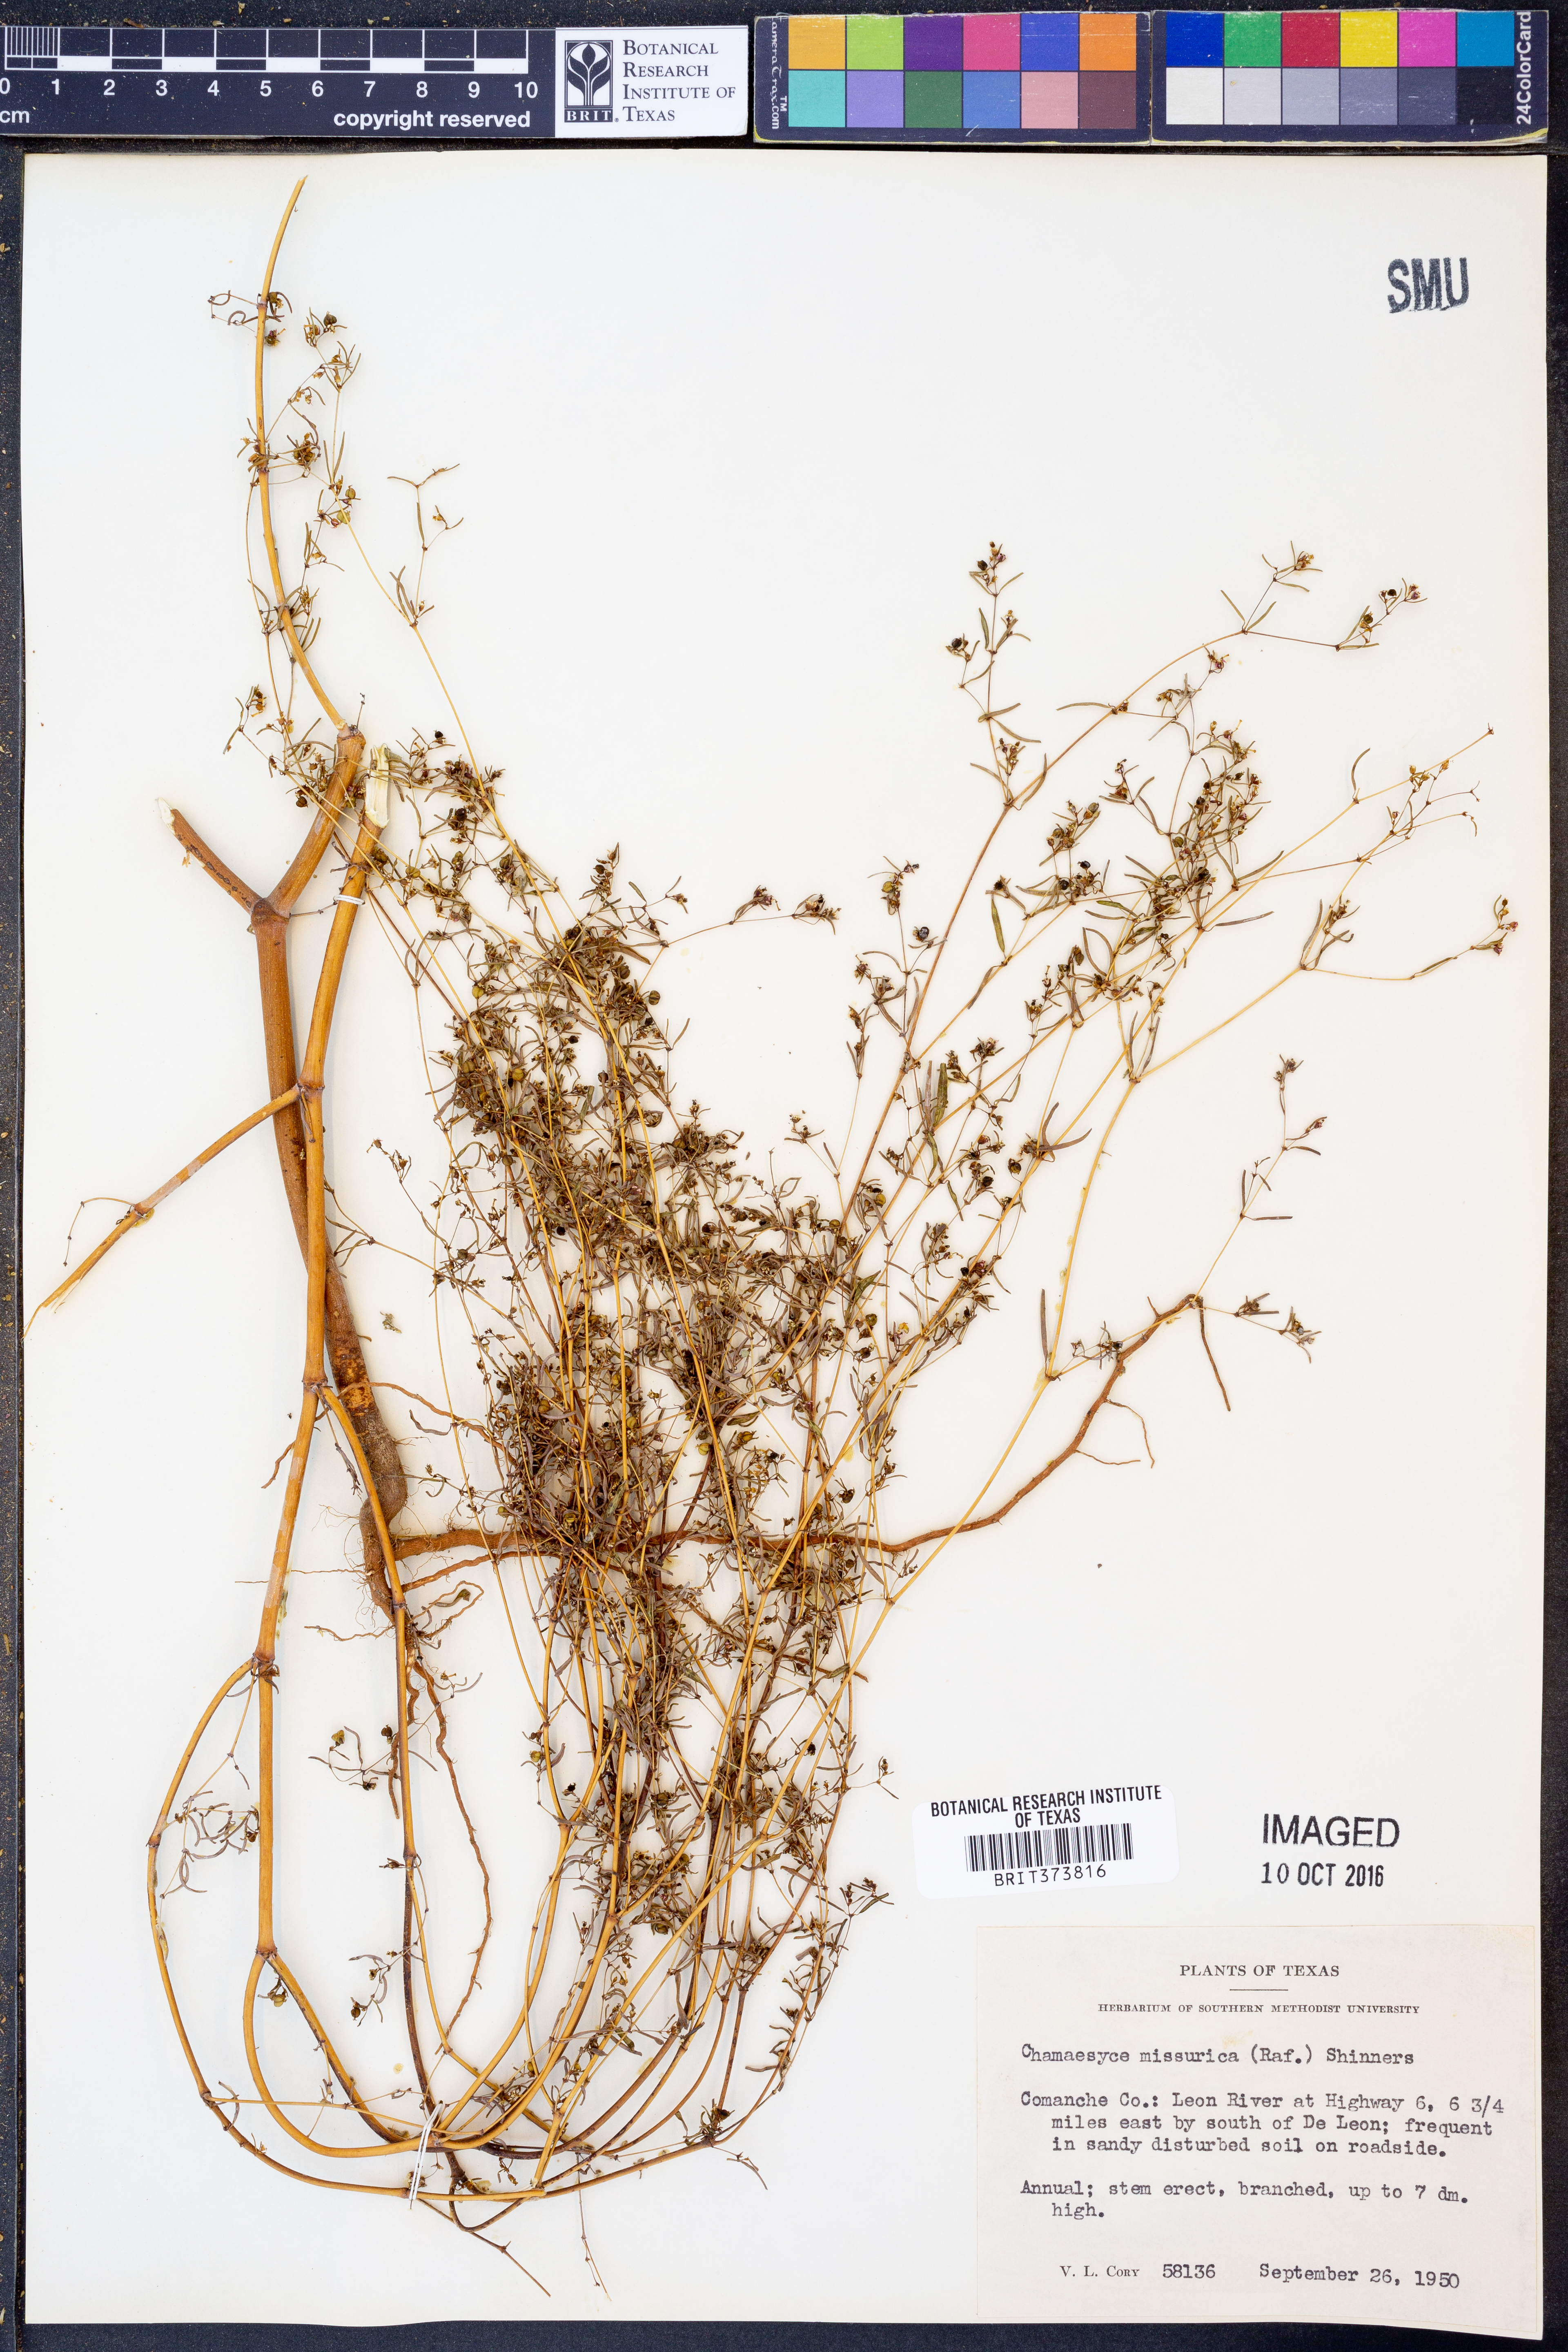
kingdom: Plantae
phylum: Tracheophyta
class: Magnoliopsida
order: Malpighiales
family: Euphorbiaceae
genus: Euphorbia
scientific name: Euphorbia missurica
